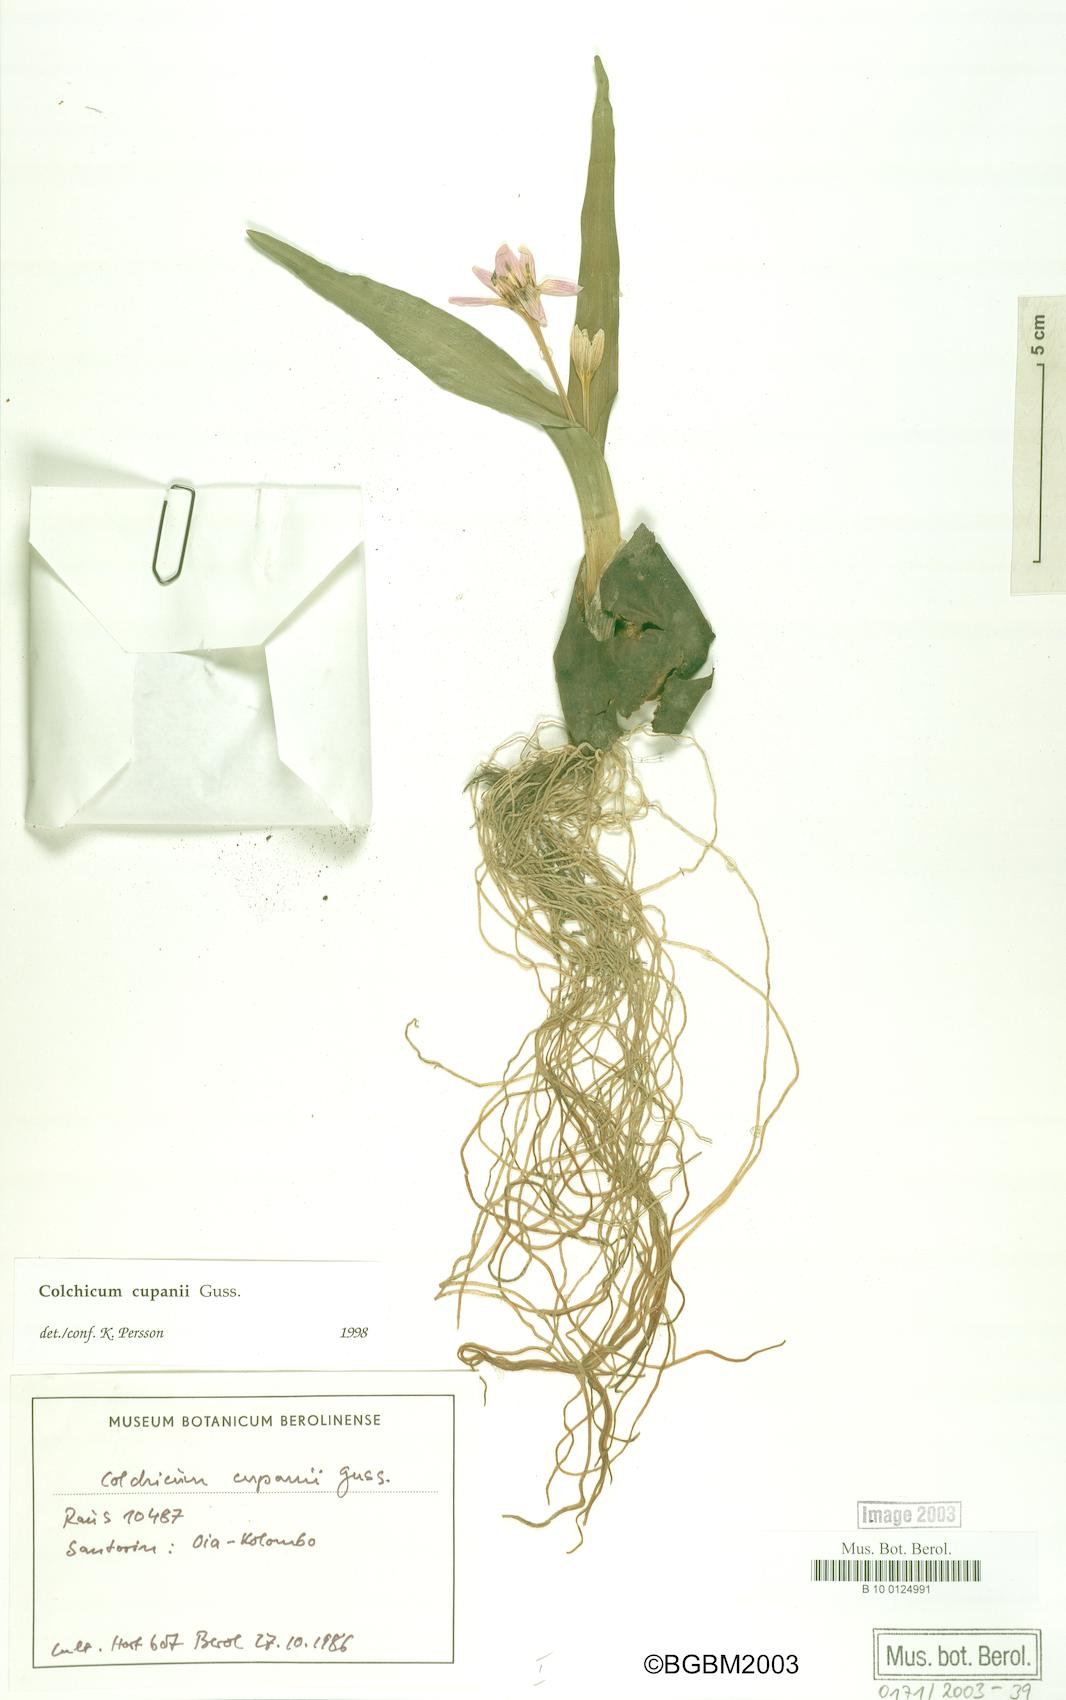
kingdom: Plantae
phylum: Tracheophyta
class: Liliopsida
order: Liliales
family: Colchicaceae
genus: Colchicum
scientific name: Colchicum cupanii
